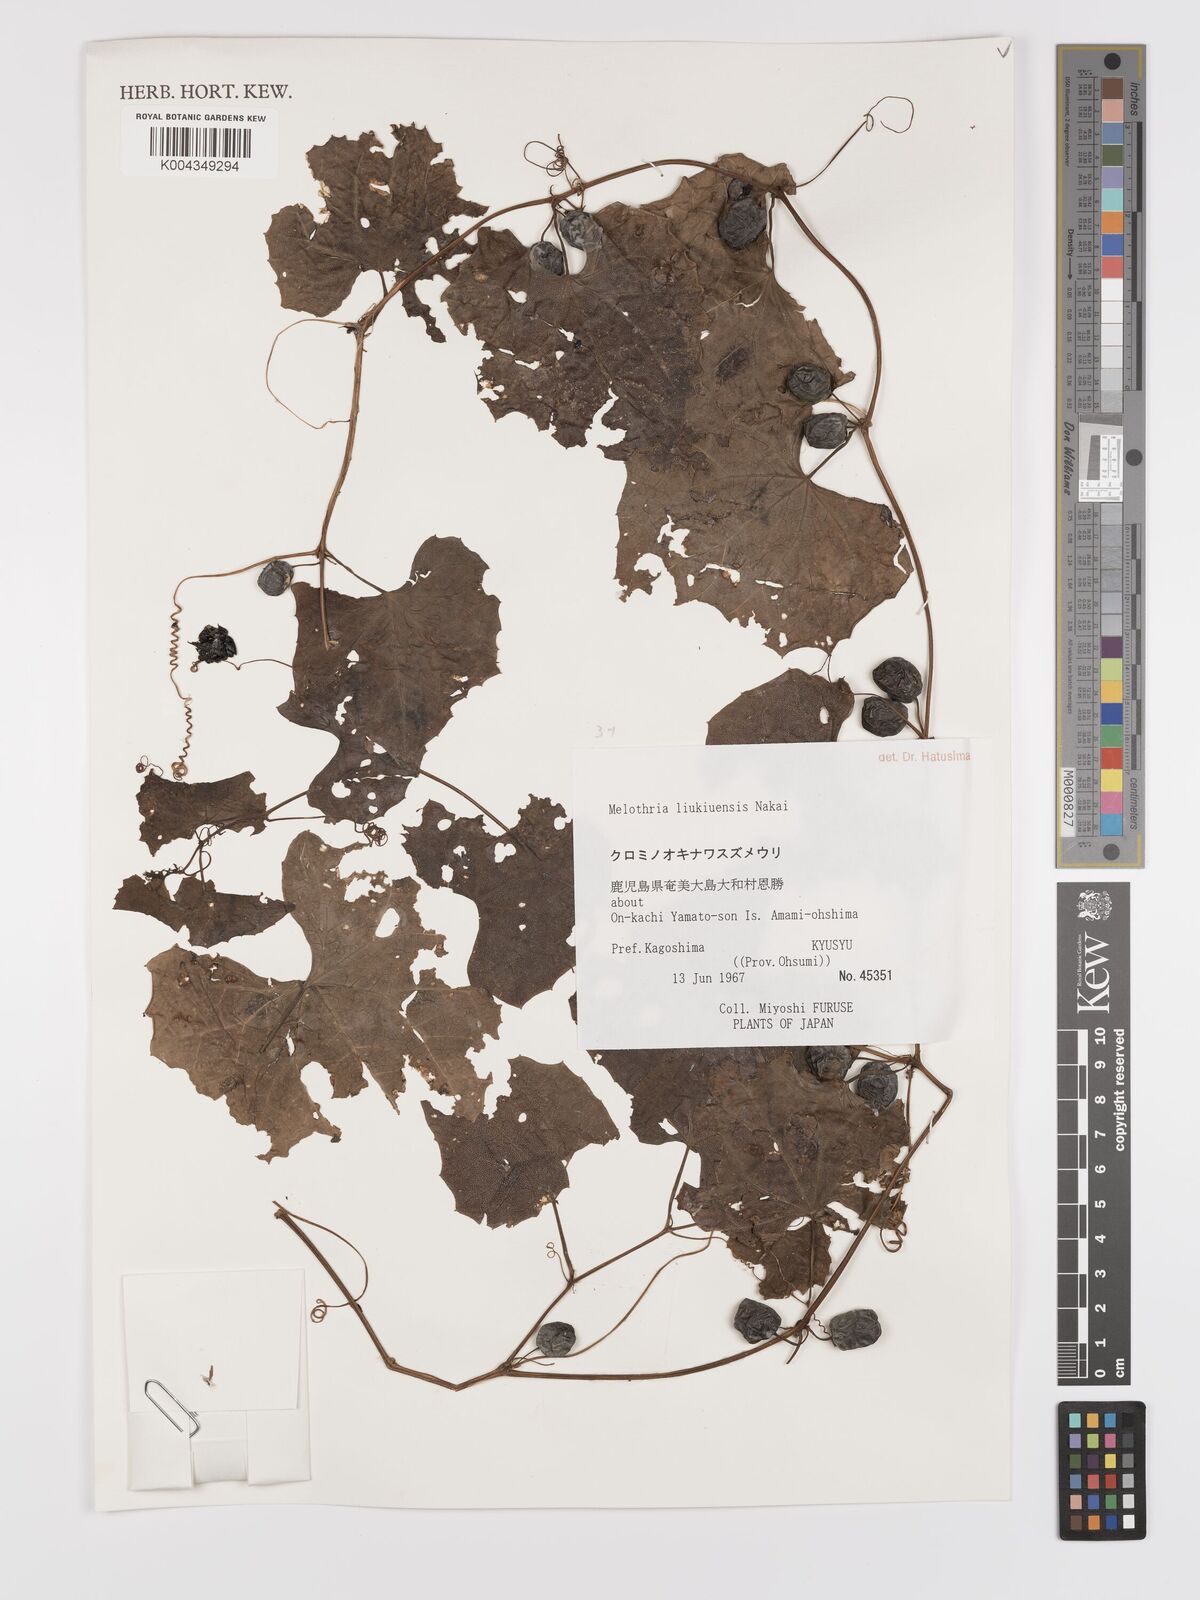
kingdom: Plantae
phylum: Tracheophyta
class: Magnoliopsida
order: Cucurbitales
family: Cucurbitaceae
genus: Zehneria
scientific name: Zehneria mucronata
